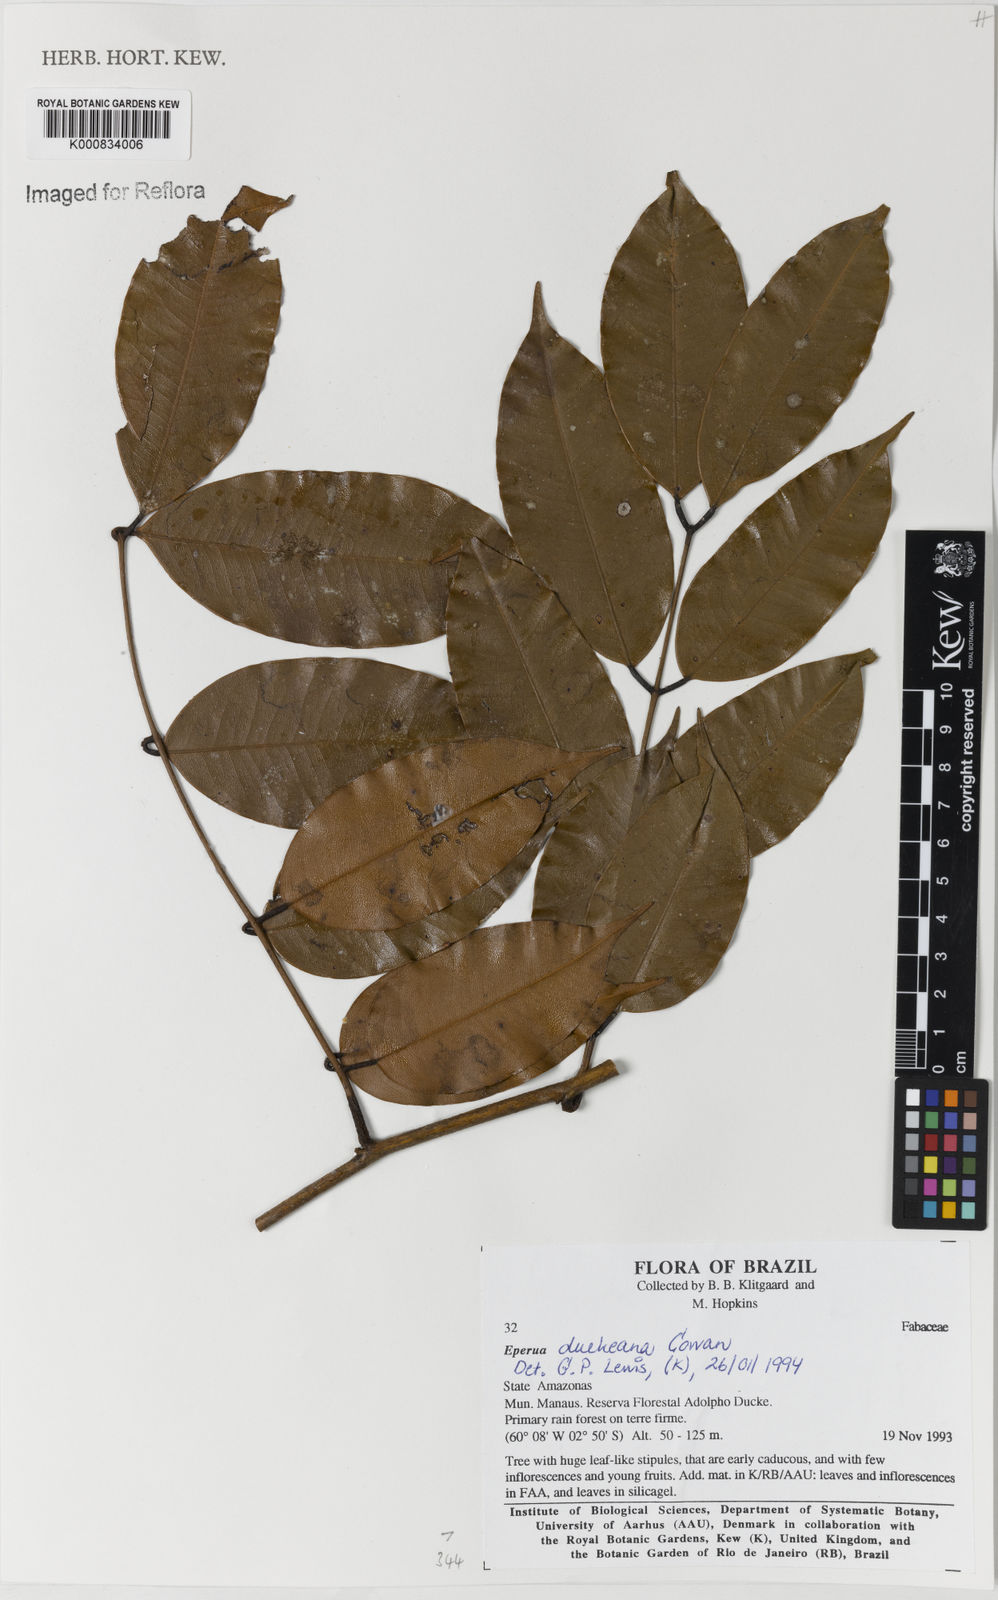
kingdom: Plantae
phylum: Tracheophyta
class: Magnoliopsida
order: Fabales
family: Fabaceae
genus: Eperua
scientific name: Eperua duckeana
